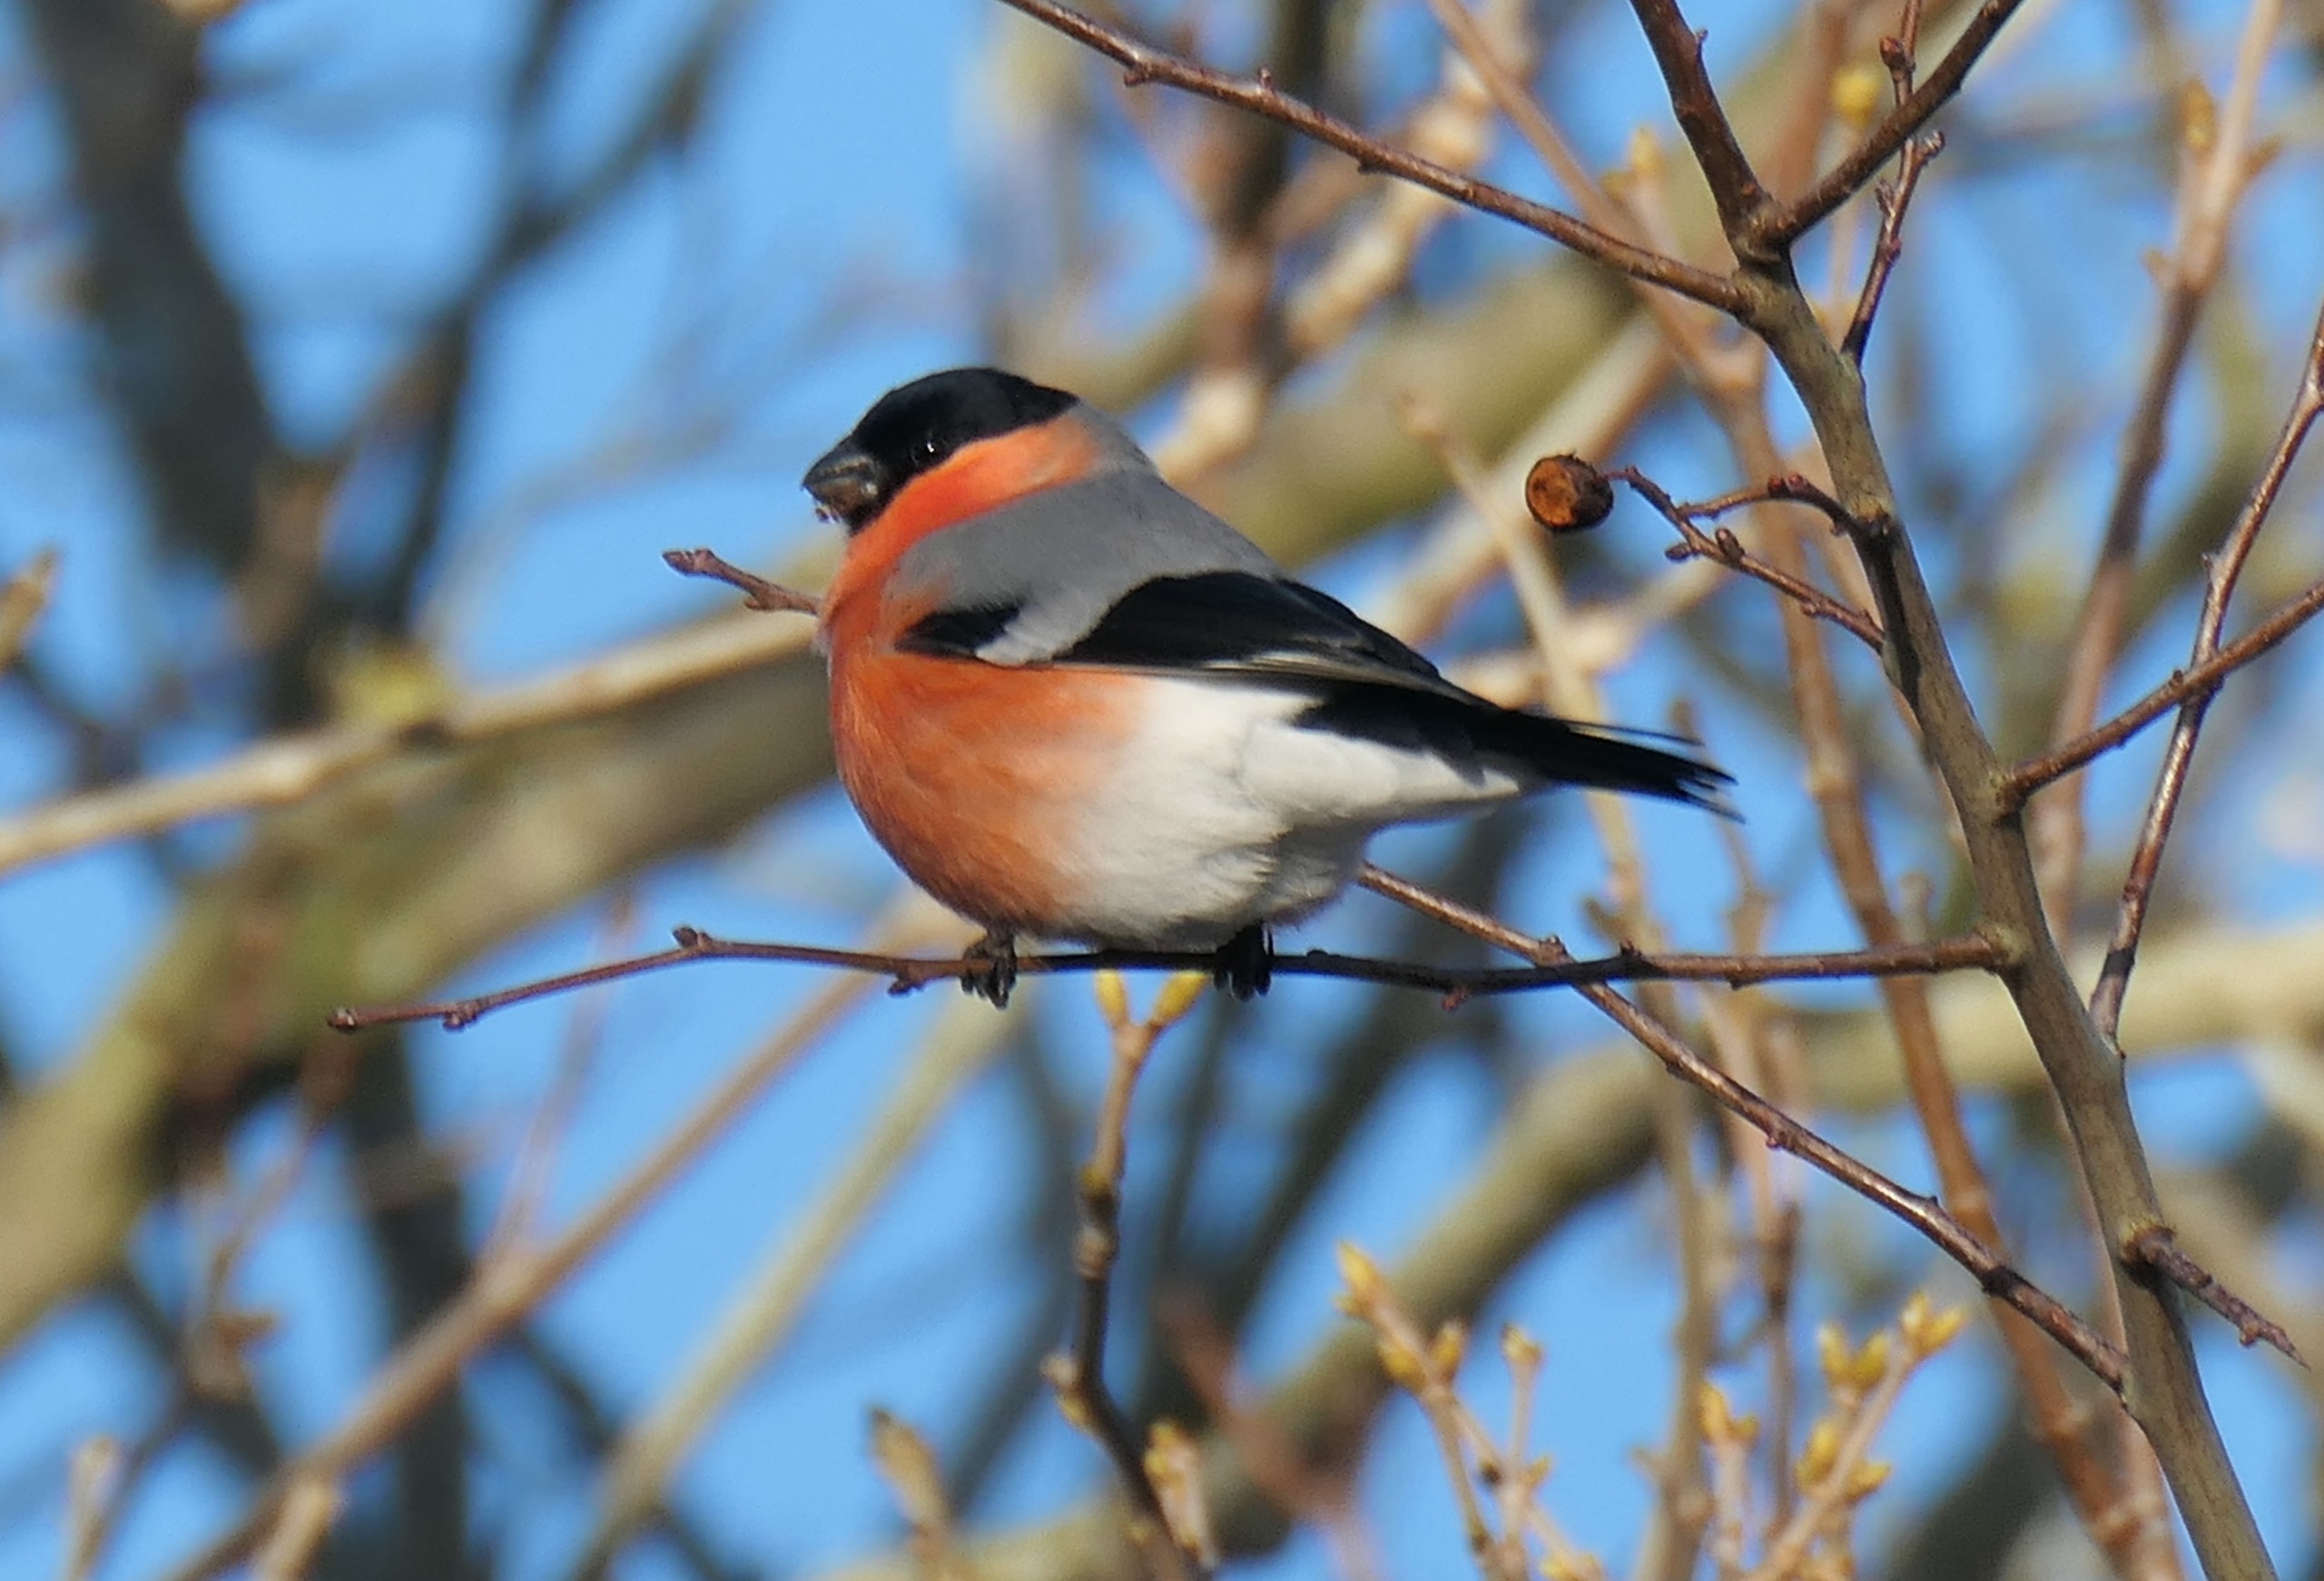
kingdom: Animalia
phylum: Chordata
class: Aves
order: Passeriformes
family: Fringillidae
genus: Pyrrhula
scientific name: Pyrrhula pyrrhula
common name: Dompap
